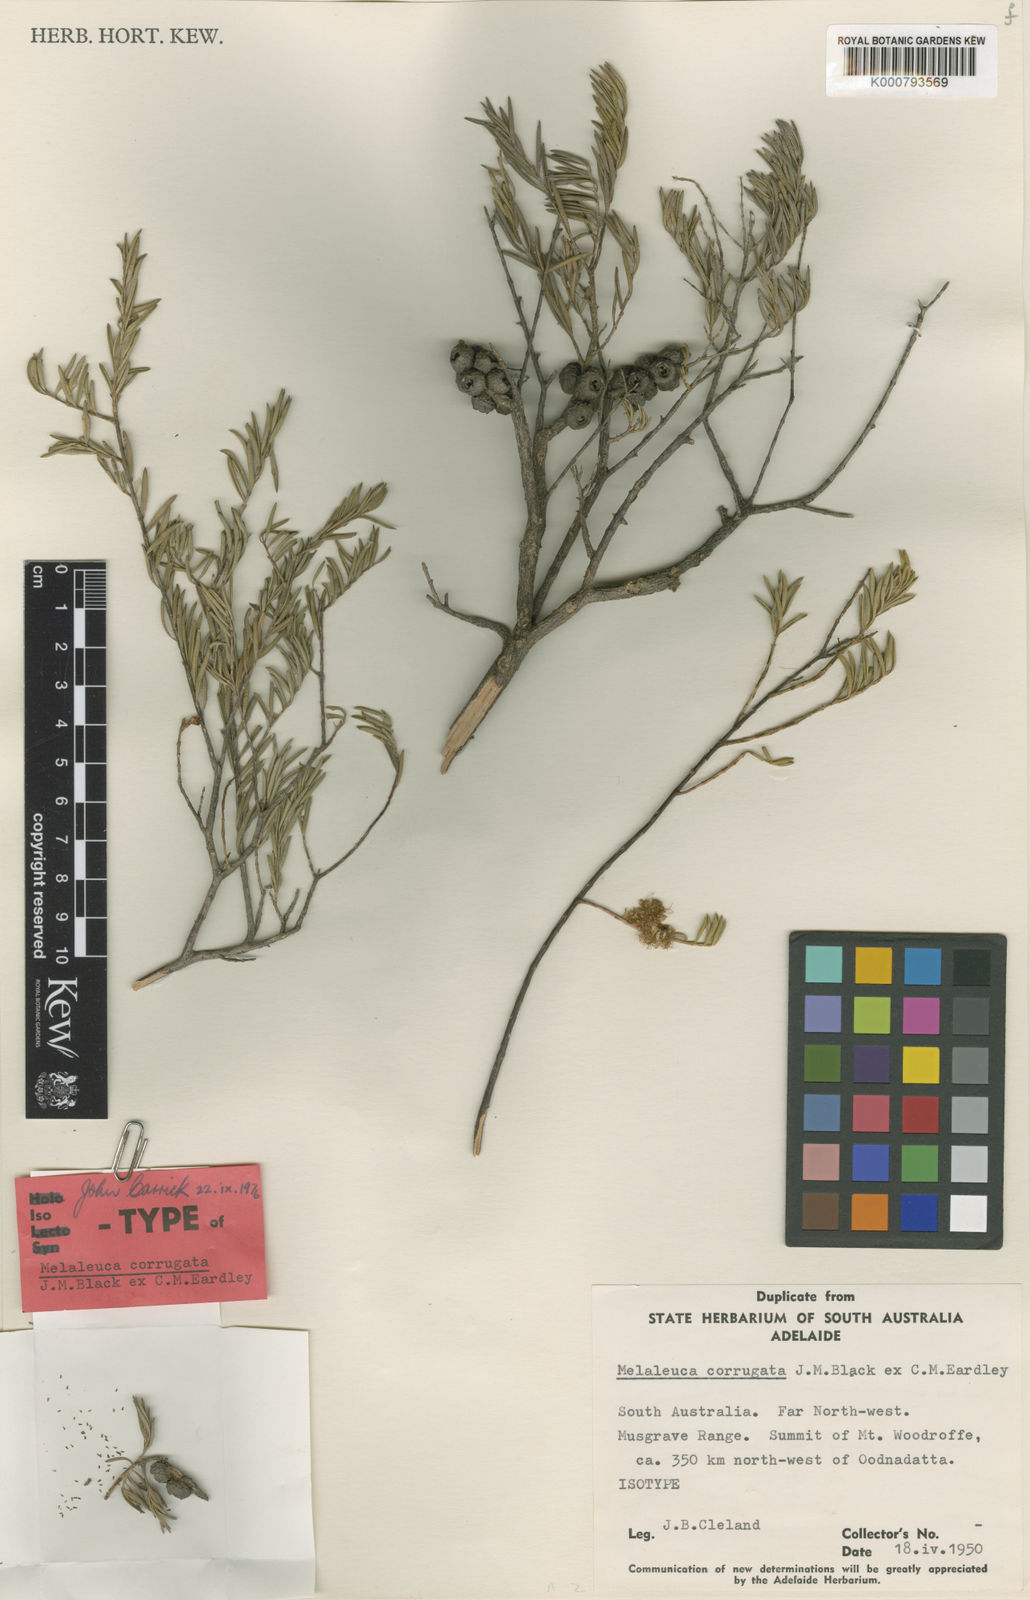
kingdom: Plantae
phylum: Tracheophyta
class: Magnoliopsida
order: Myrtales
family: Myrtaceae
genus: Melaleuca
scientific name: Melaleuca fulgens
